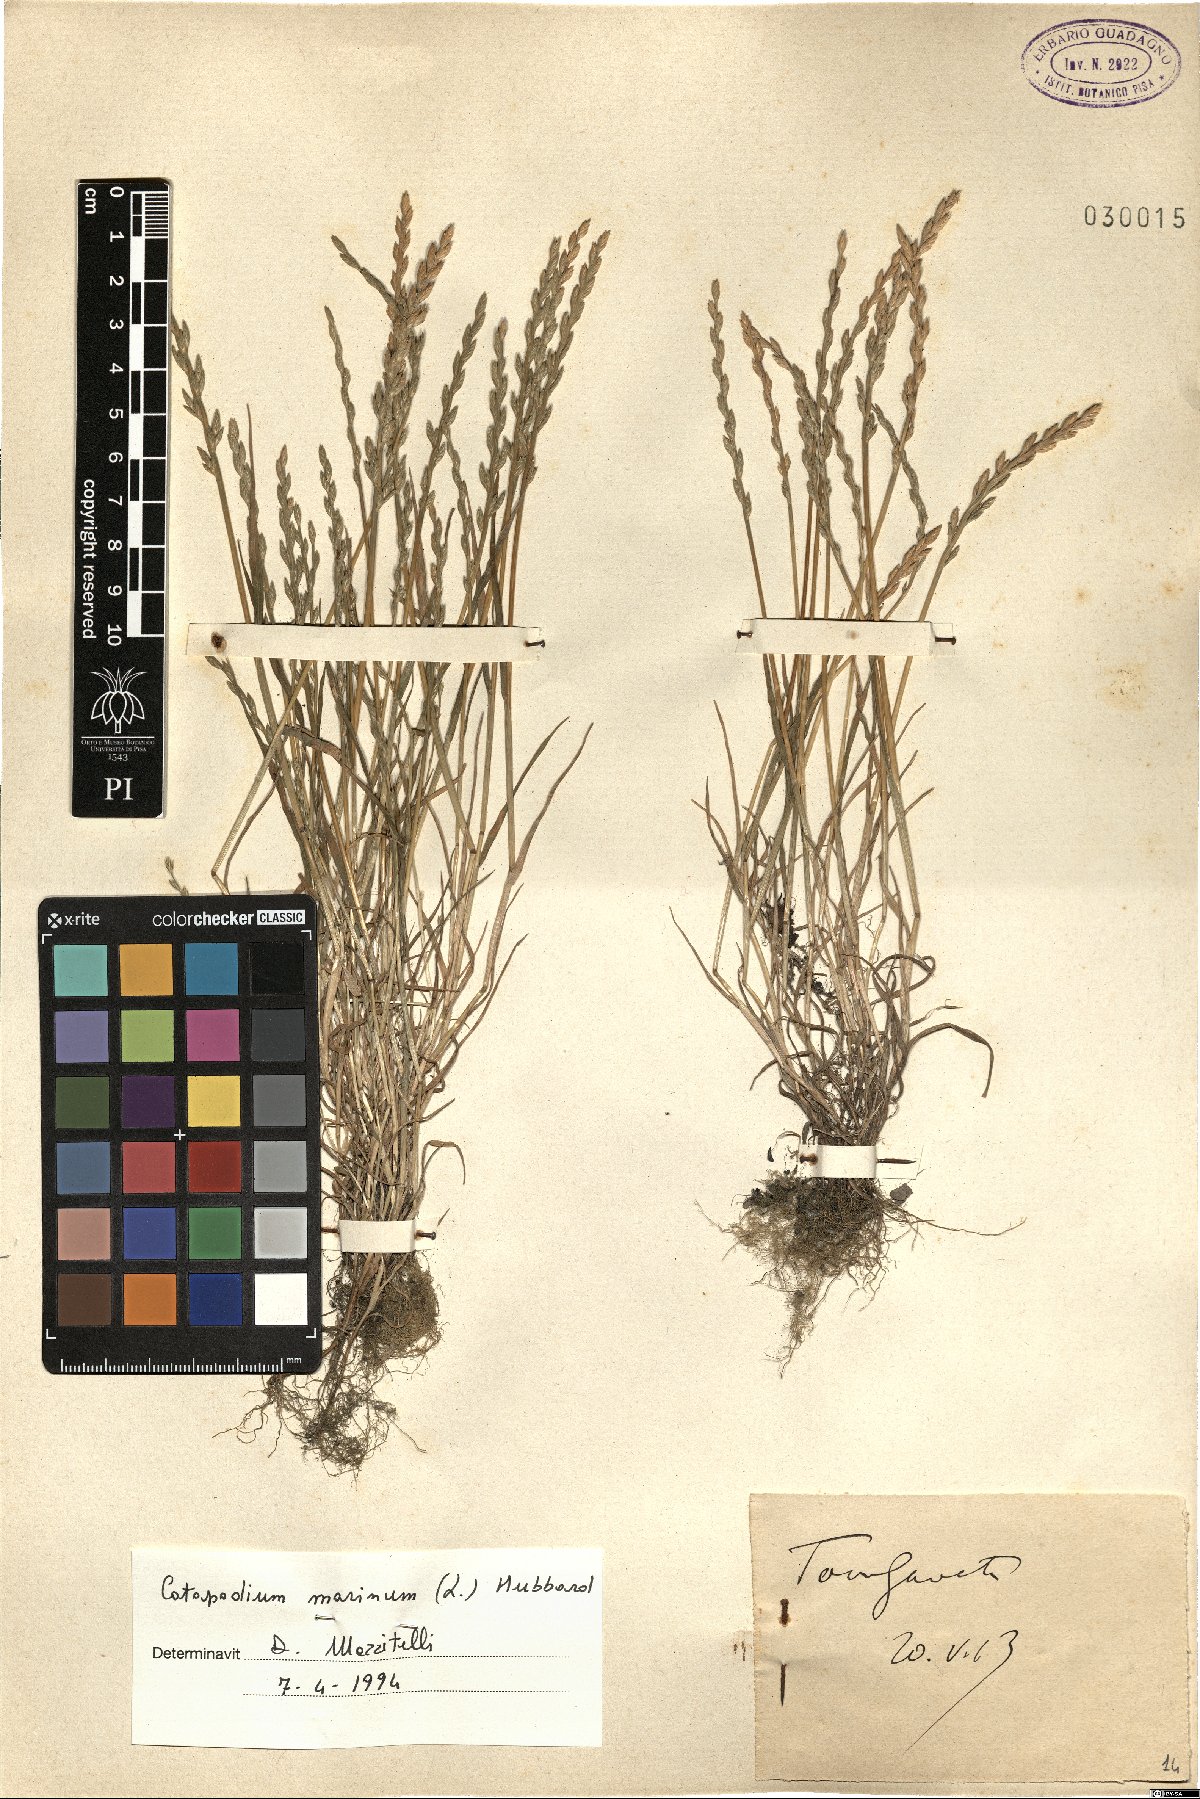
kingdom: Plantae
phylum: Tracheophyta
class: Liliopsida
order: Poales
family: Poaceae
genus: Catapodium
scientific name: Catapodium marinum
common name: Sea fern-grass
